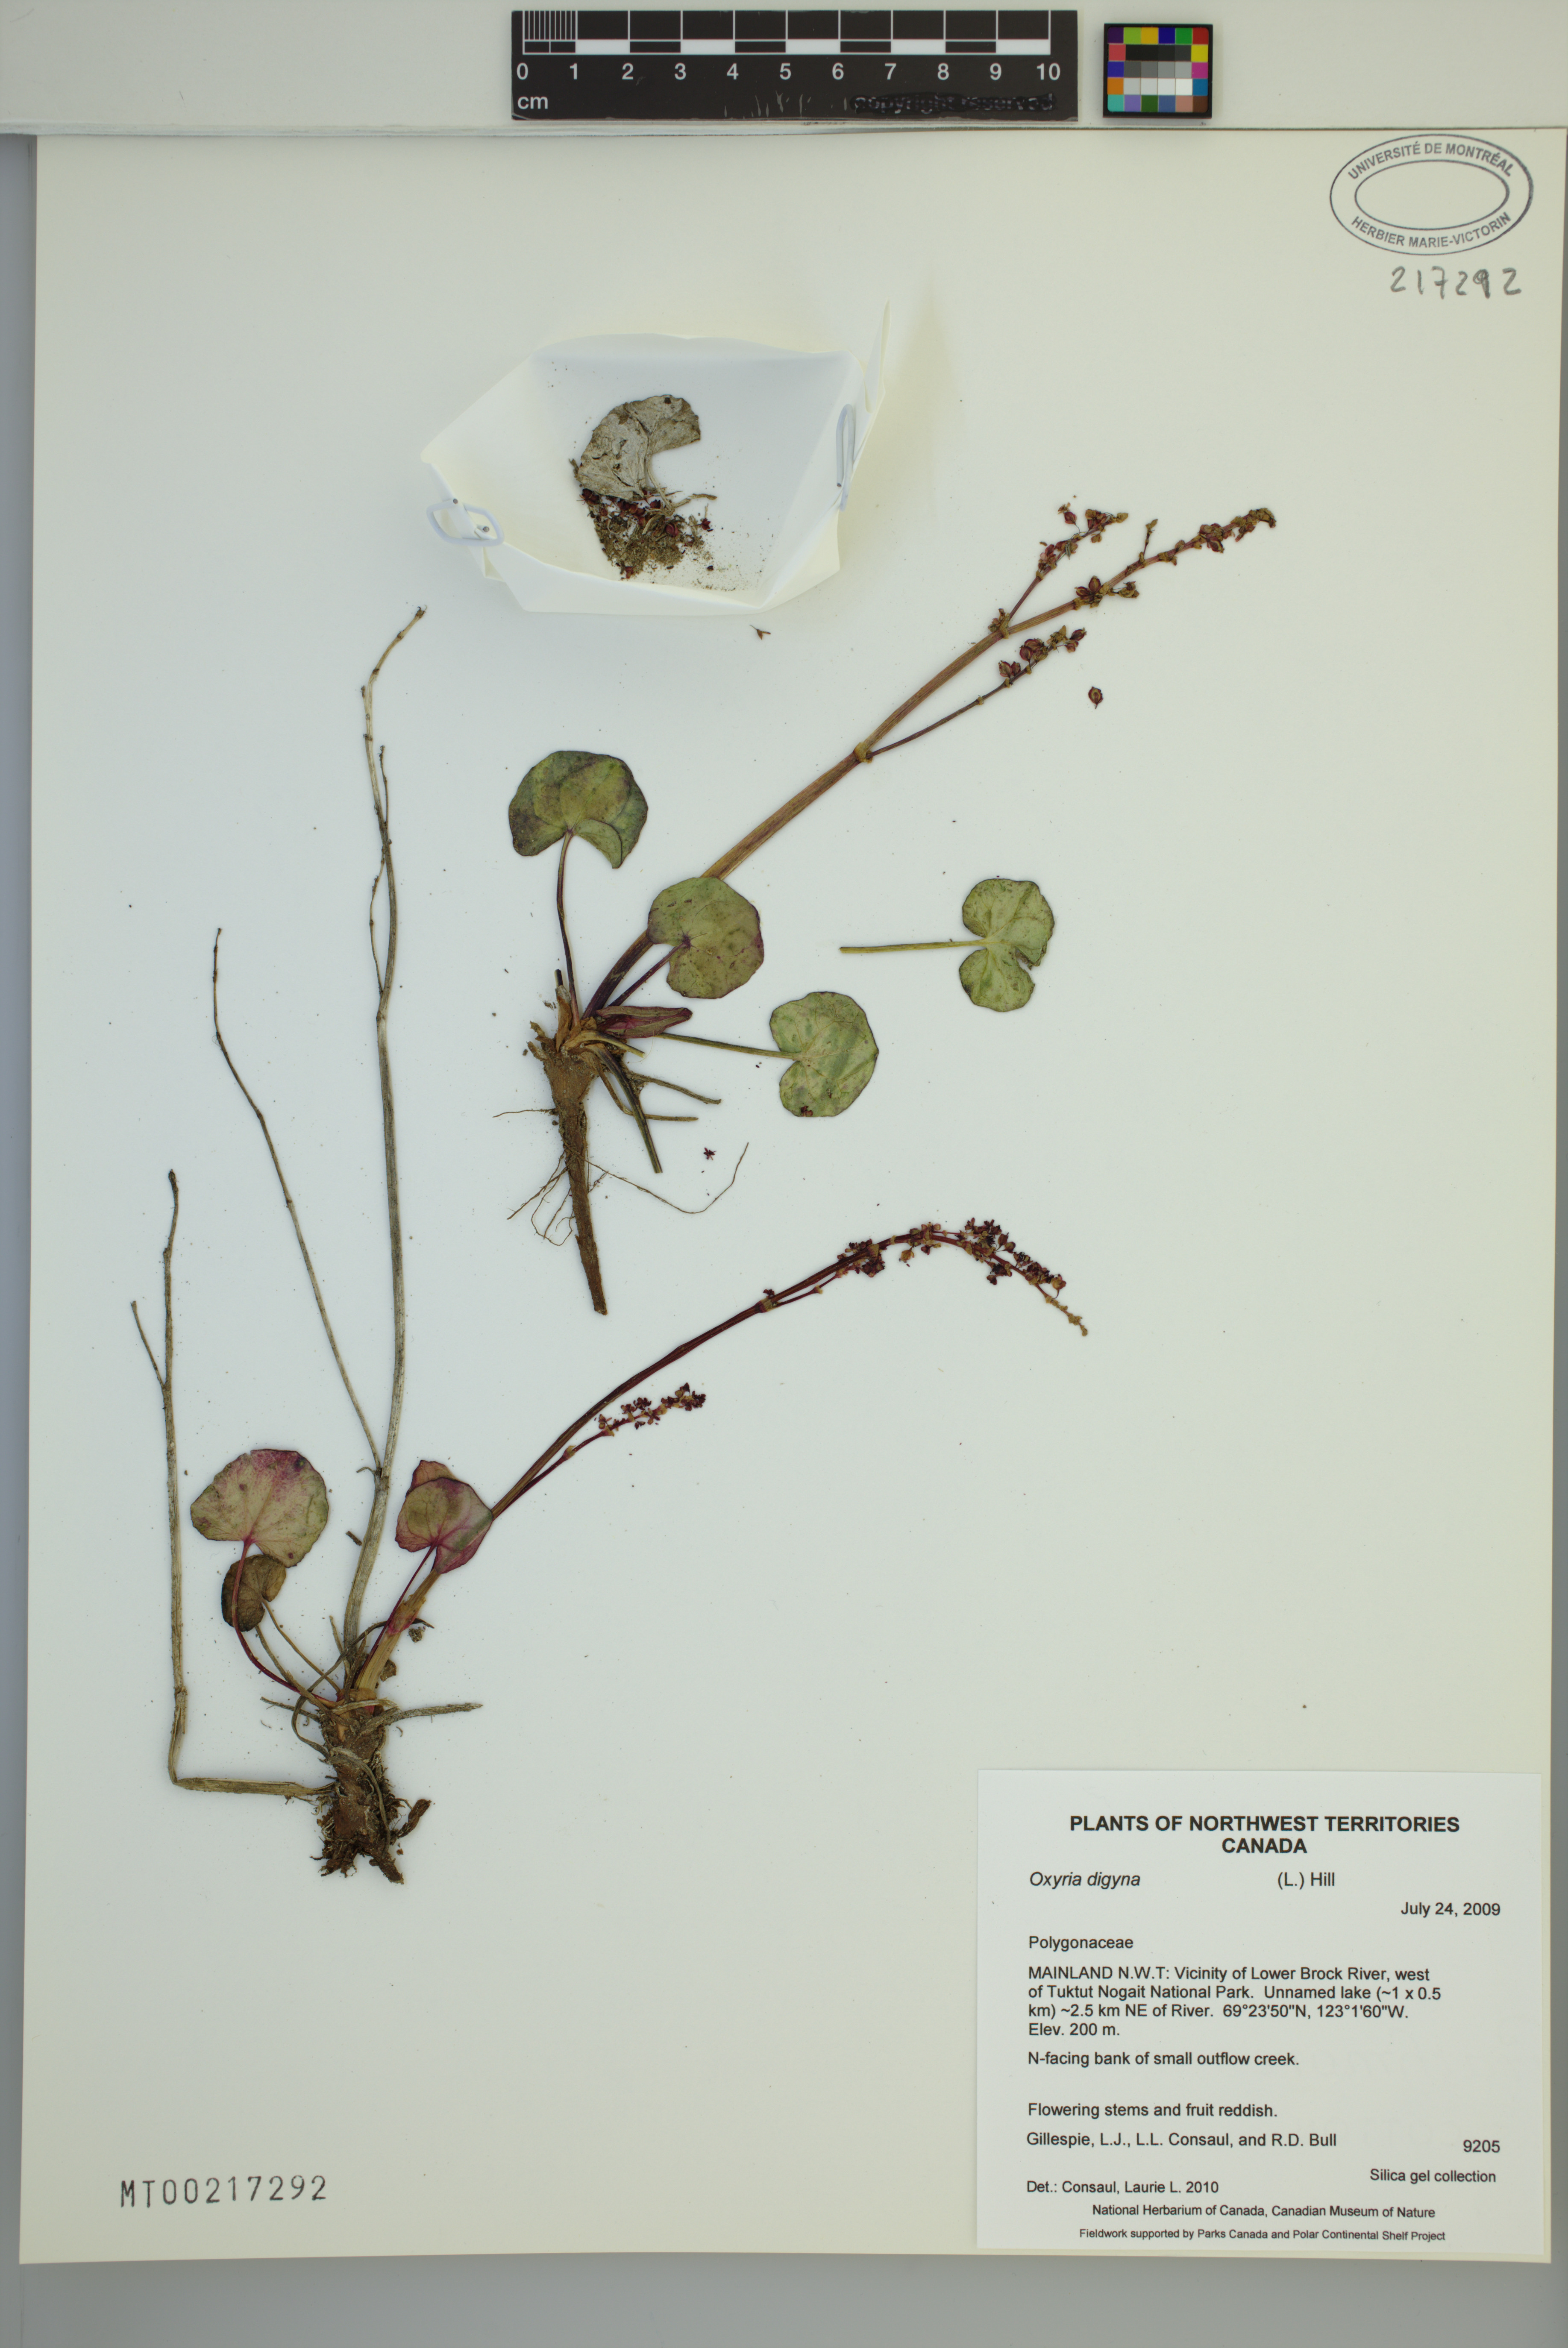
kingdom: Plantae
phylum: Tracheophyta
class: Magnoliopsida
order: Caryophyllales
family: Polygonaceae
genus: Oxyria
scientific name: Oxyria digyna
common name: Alpine mountain-sorrel
